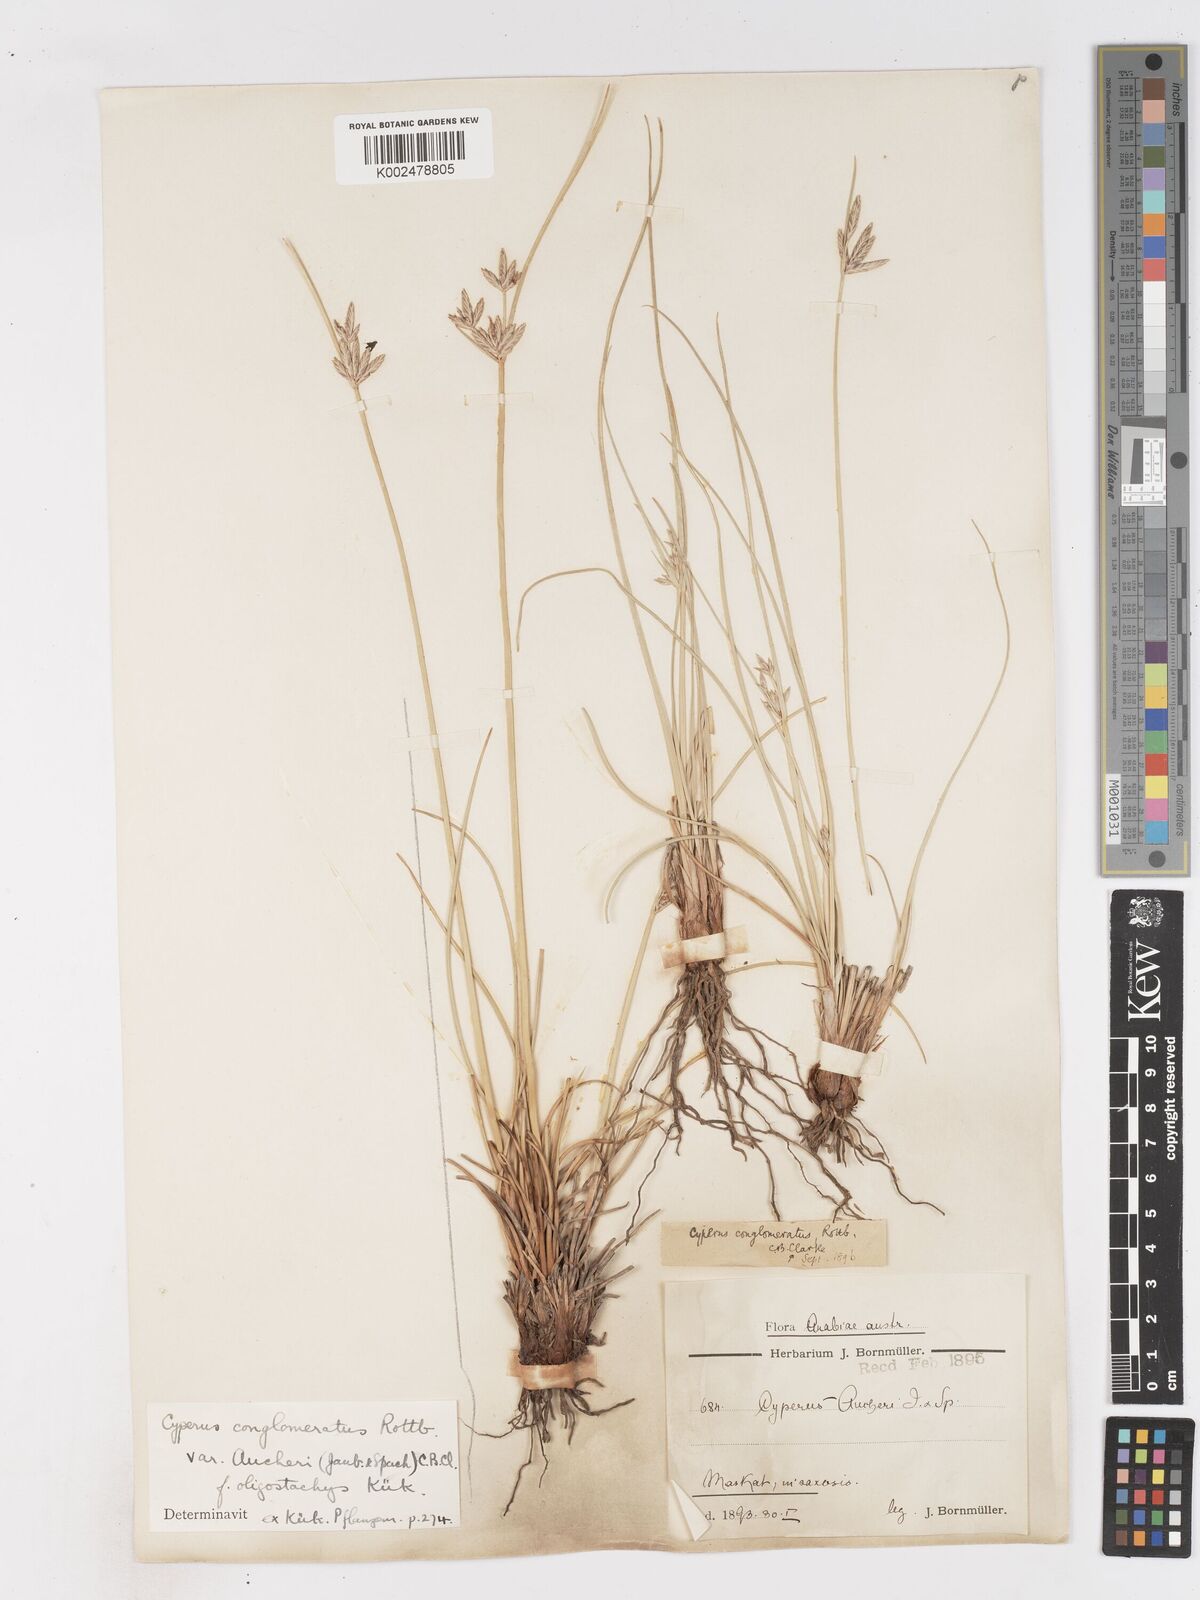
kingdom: Plantae
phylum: Tracheophyta
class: Liliopsida
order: Poales
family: Cyperaceae
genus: Cyperus
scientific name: Cyperus aucheri
